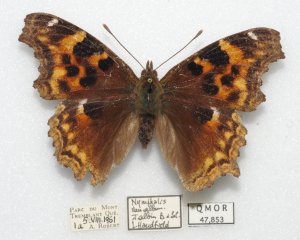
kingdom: Animalia
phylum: Arthropoda
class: Insecta
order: Lepidoptera
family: Nymphalidae
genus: Polygonia
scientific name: Polygonia vaualbum
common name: Compton Tortoiseshell
